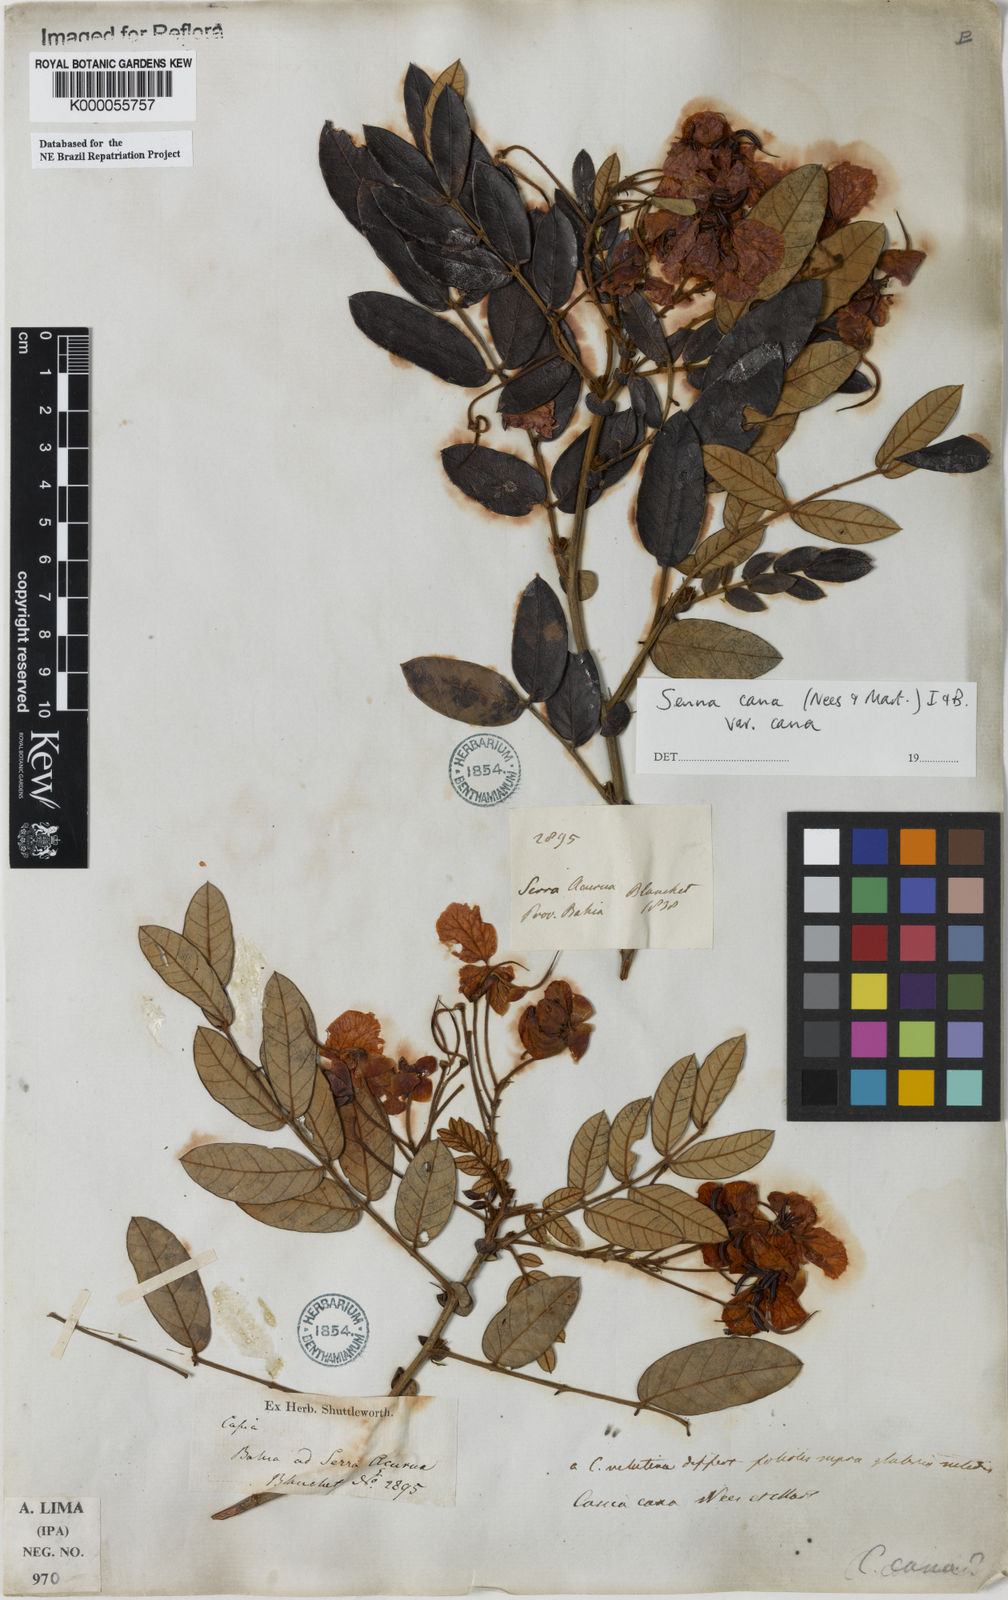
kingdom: Plantae
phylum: Tracheophyta
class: Magnoliopsida
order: Fabales
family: Fabaceae
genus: Senna
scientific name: Senna cana
